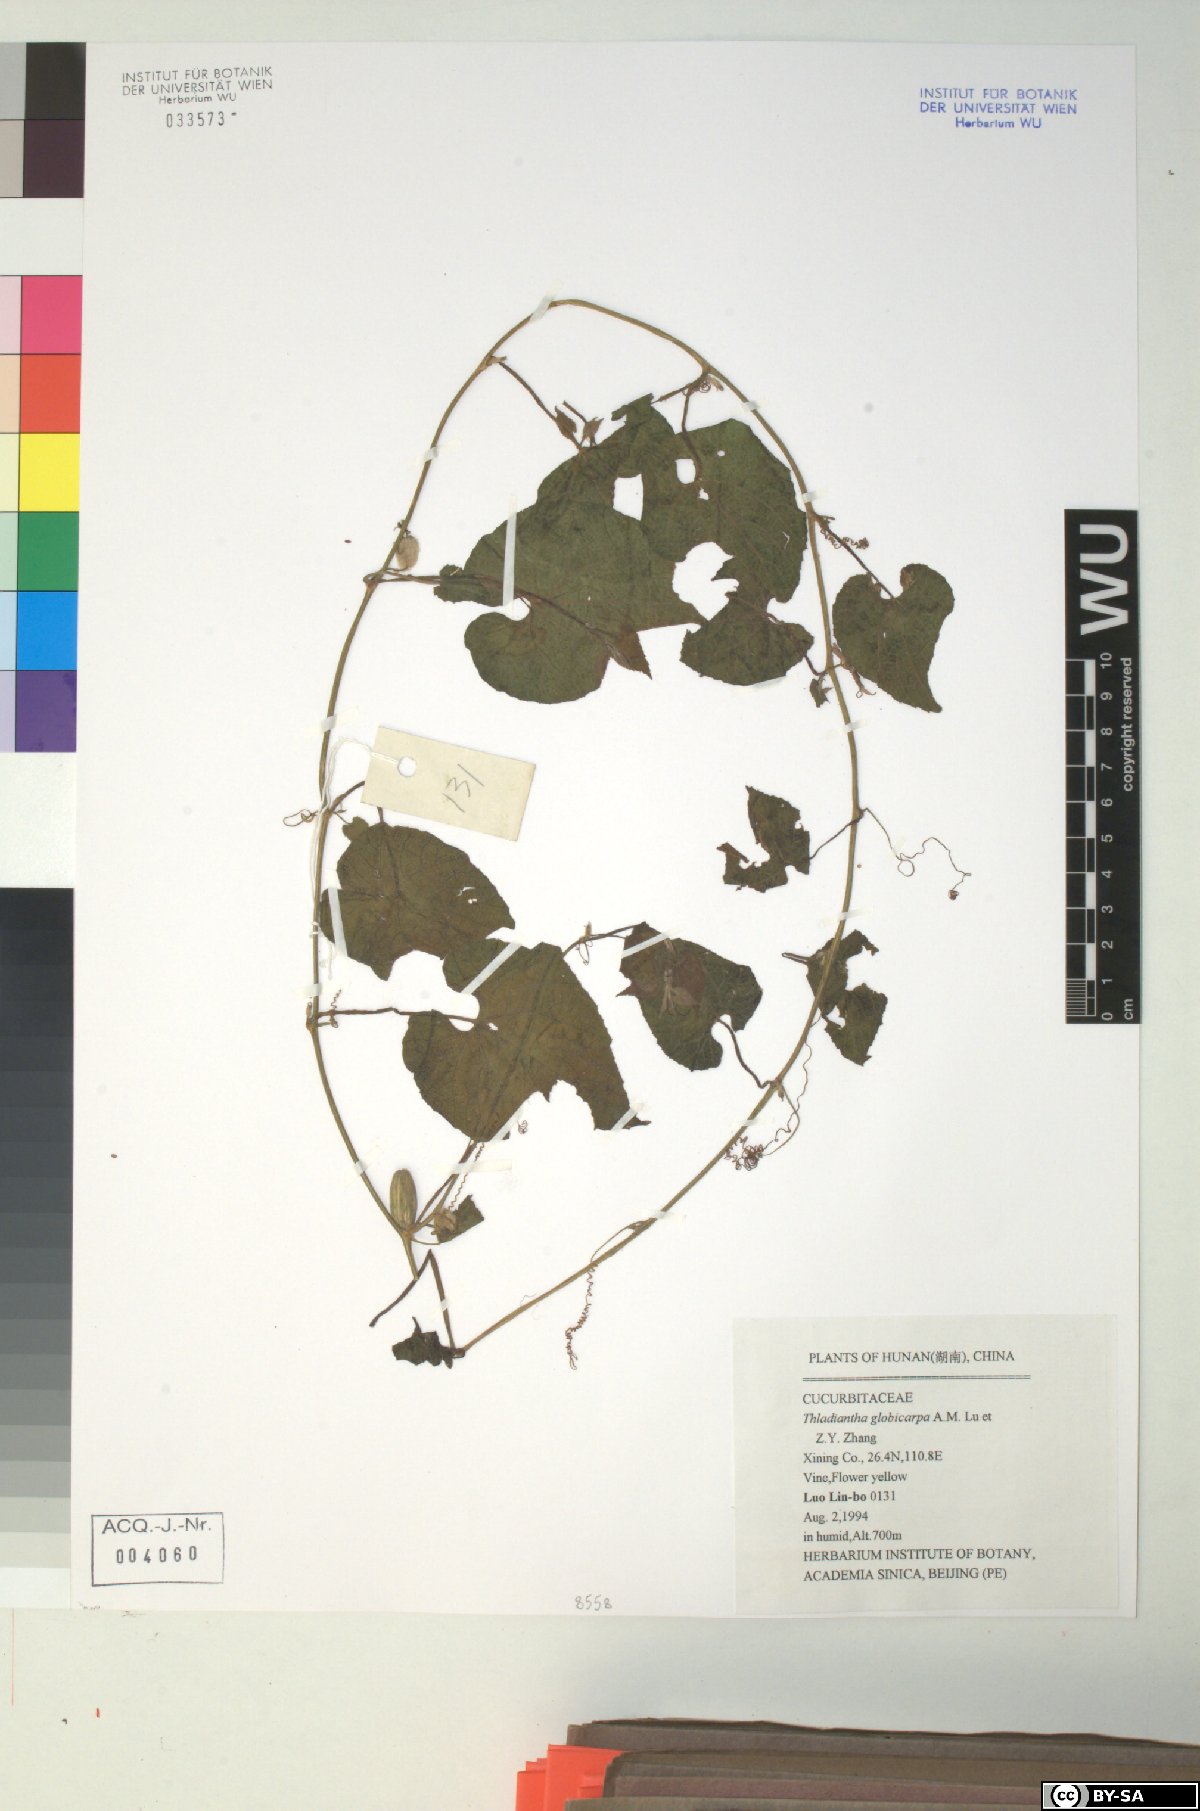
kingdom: Plantae
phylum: Tracheophyta
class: Magnoliopsida
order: Cucurbitales
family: Cucurbitaceae
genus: Thladiantha
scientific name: Thladiantha cordifolia
